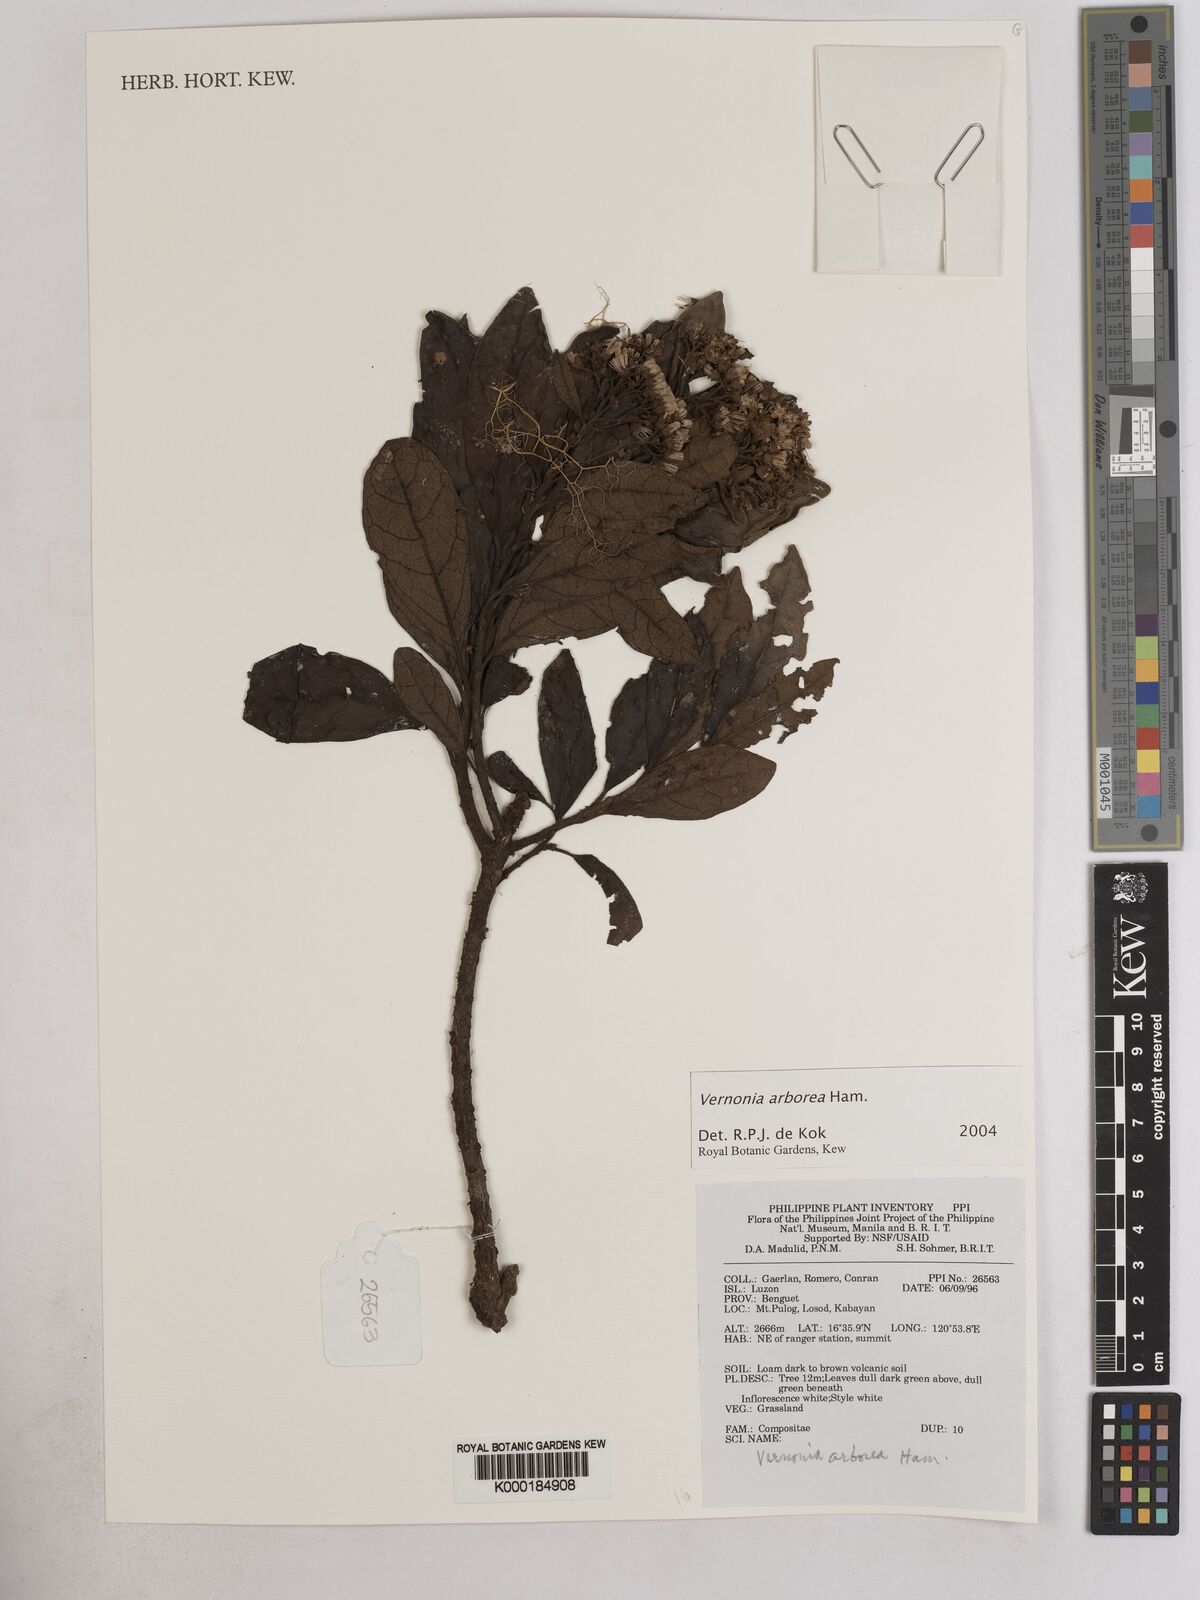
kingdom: Plantae
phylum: Tracheophyta
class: Magnoliopsida
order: Asterales
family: Asteraceae
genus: Strobocalyx
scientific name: Strobocalyx arborea
